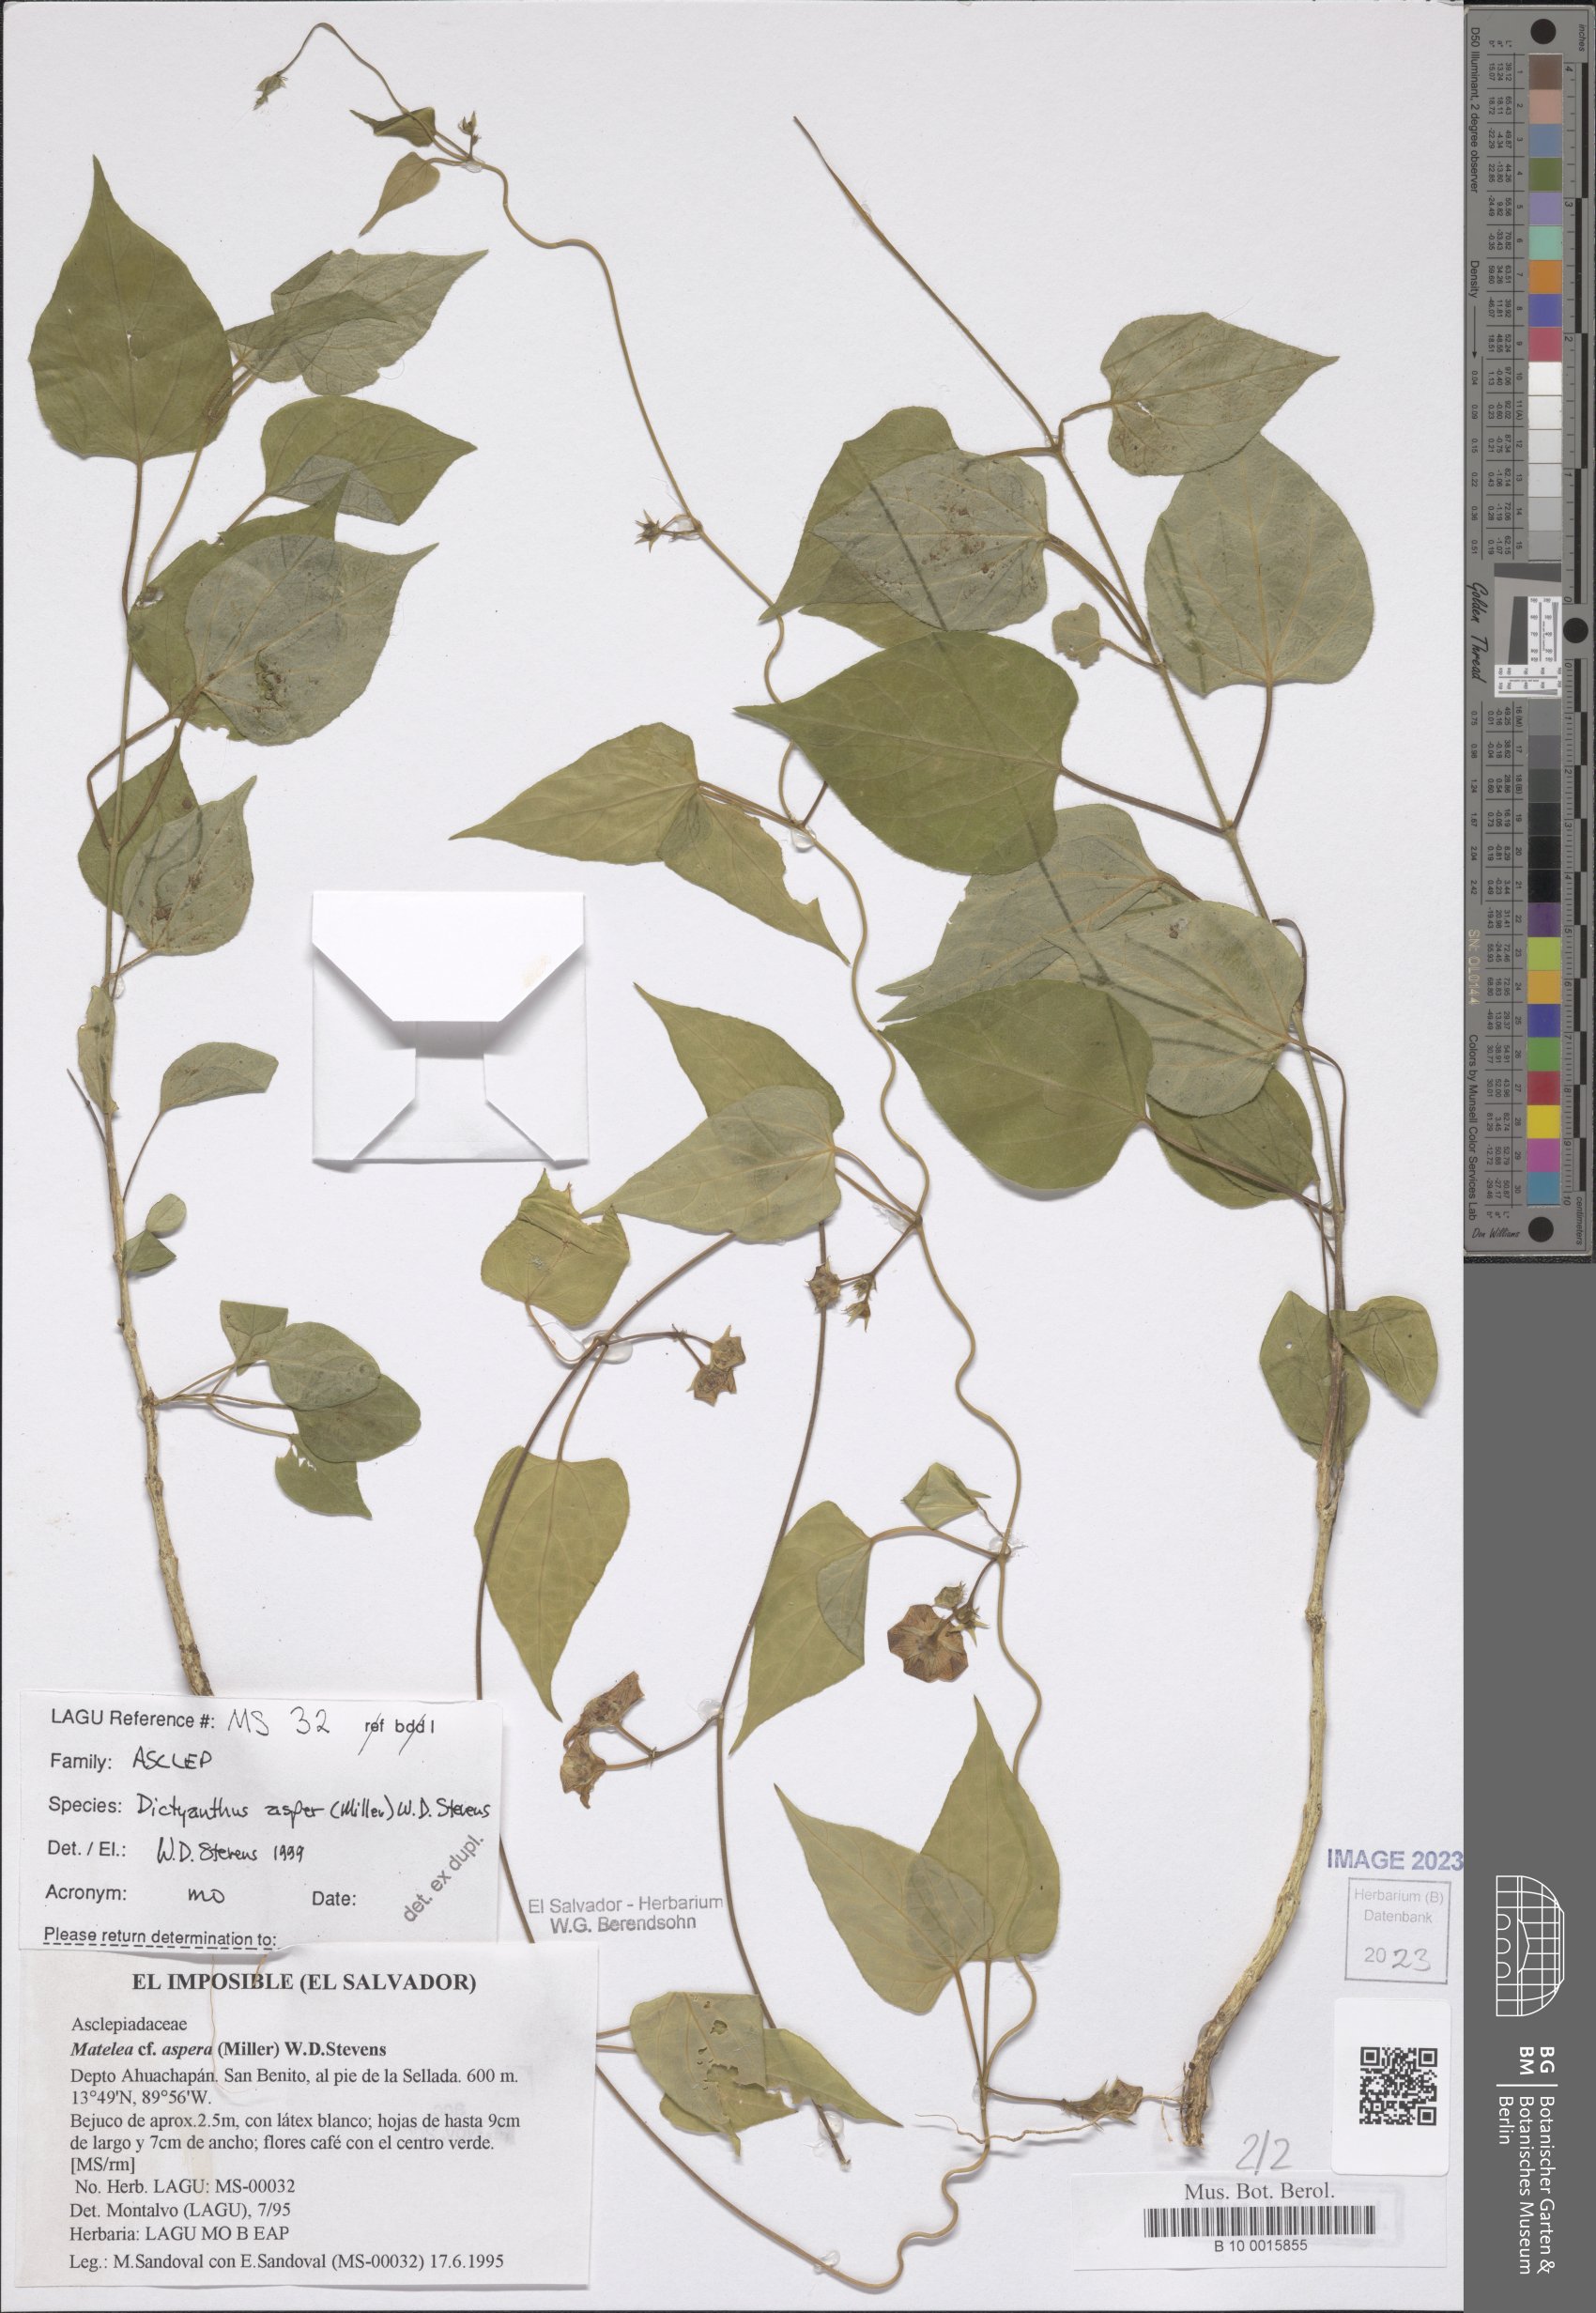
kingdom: Plantae
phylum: Tracheophyta
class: Magnoliopsida
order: Gentianales
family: Apocynaceae
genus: Dictyanthus
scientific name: Dictyanthus asper
